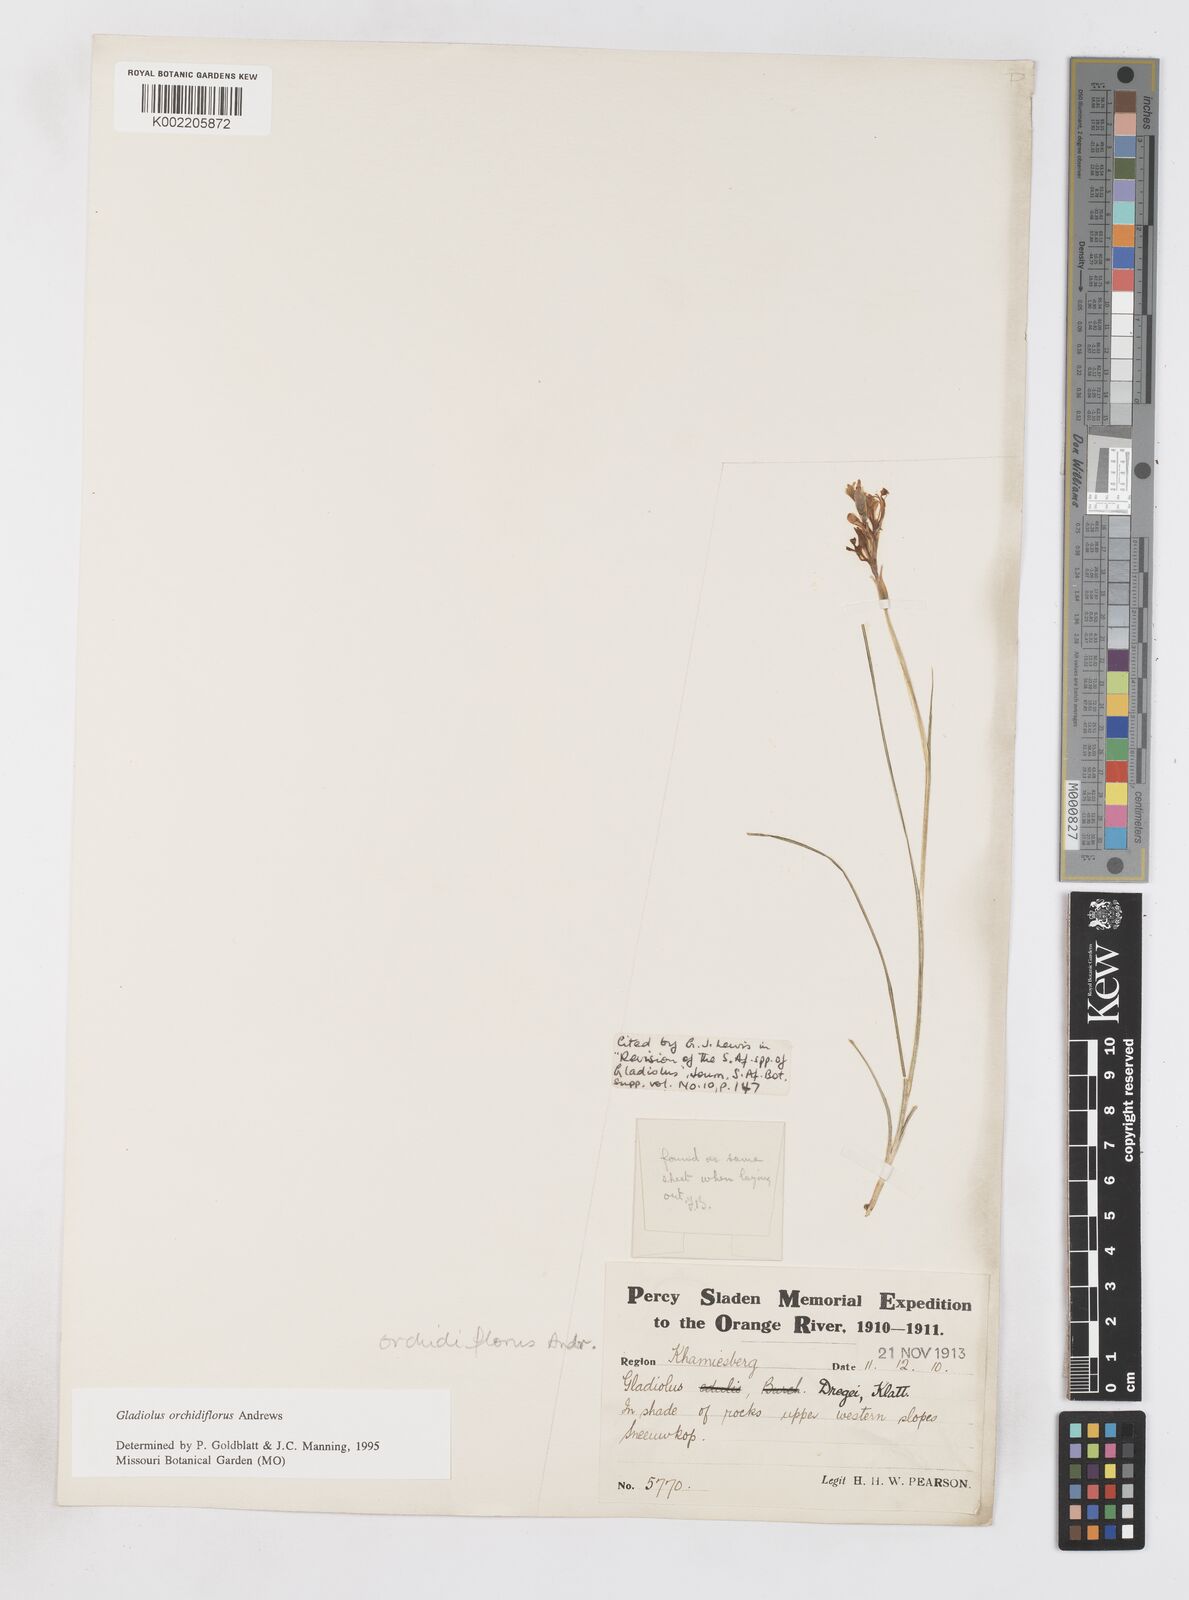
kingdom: Plantae
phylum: Tracheophyta
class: Liliopsida
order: Asparagales
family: Iridaceae
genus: Gladiolus
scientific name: Gladiolus orchidiflorus
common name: Gray kalkoentjie
